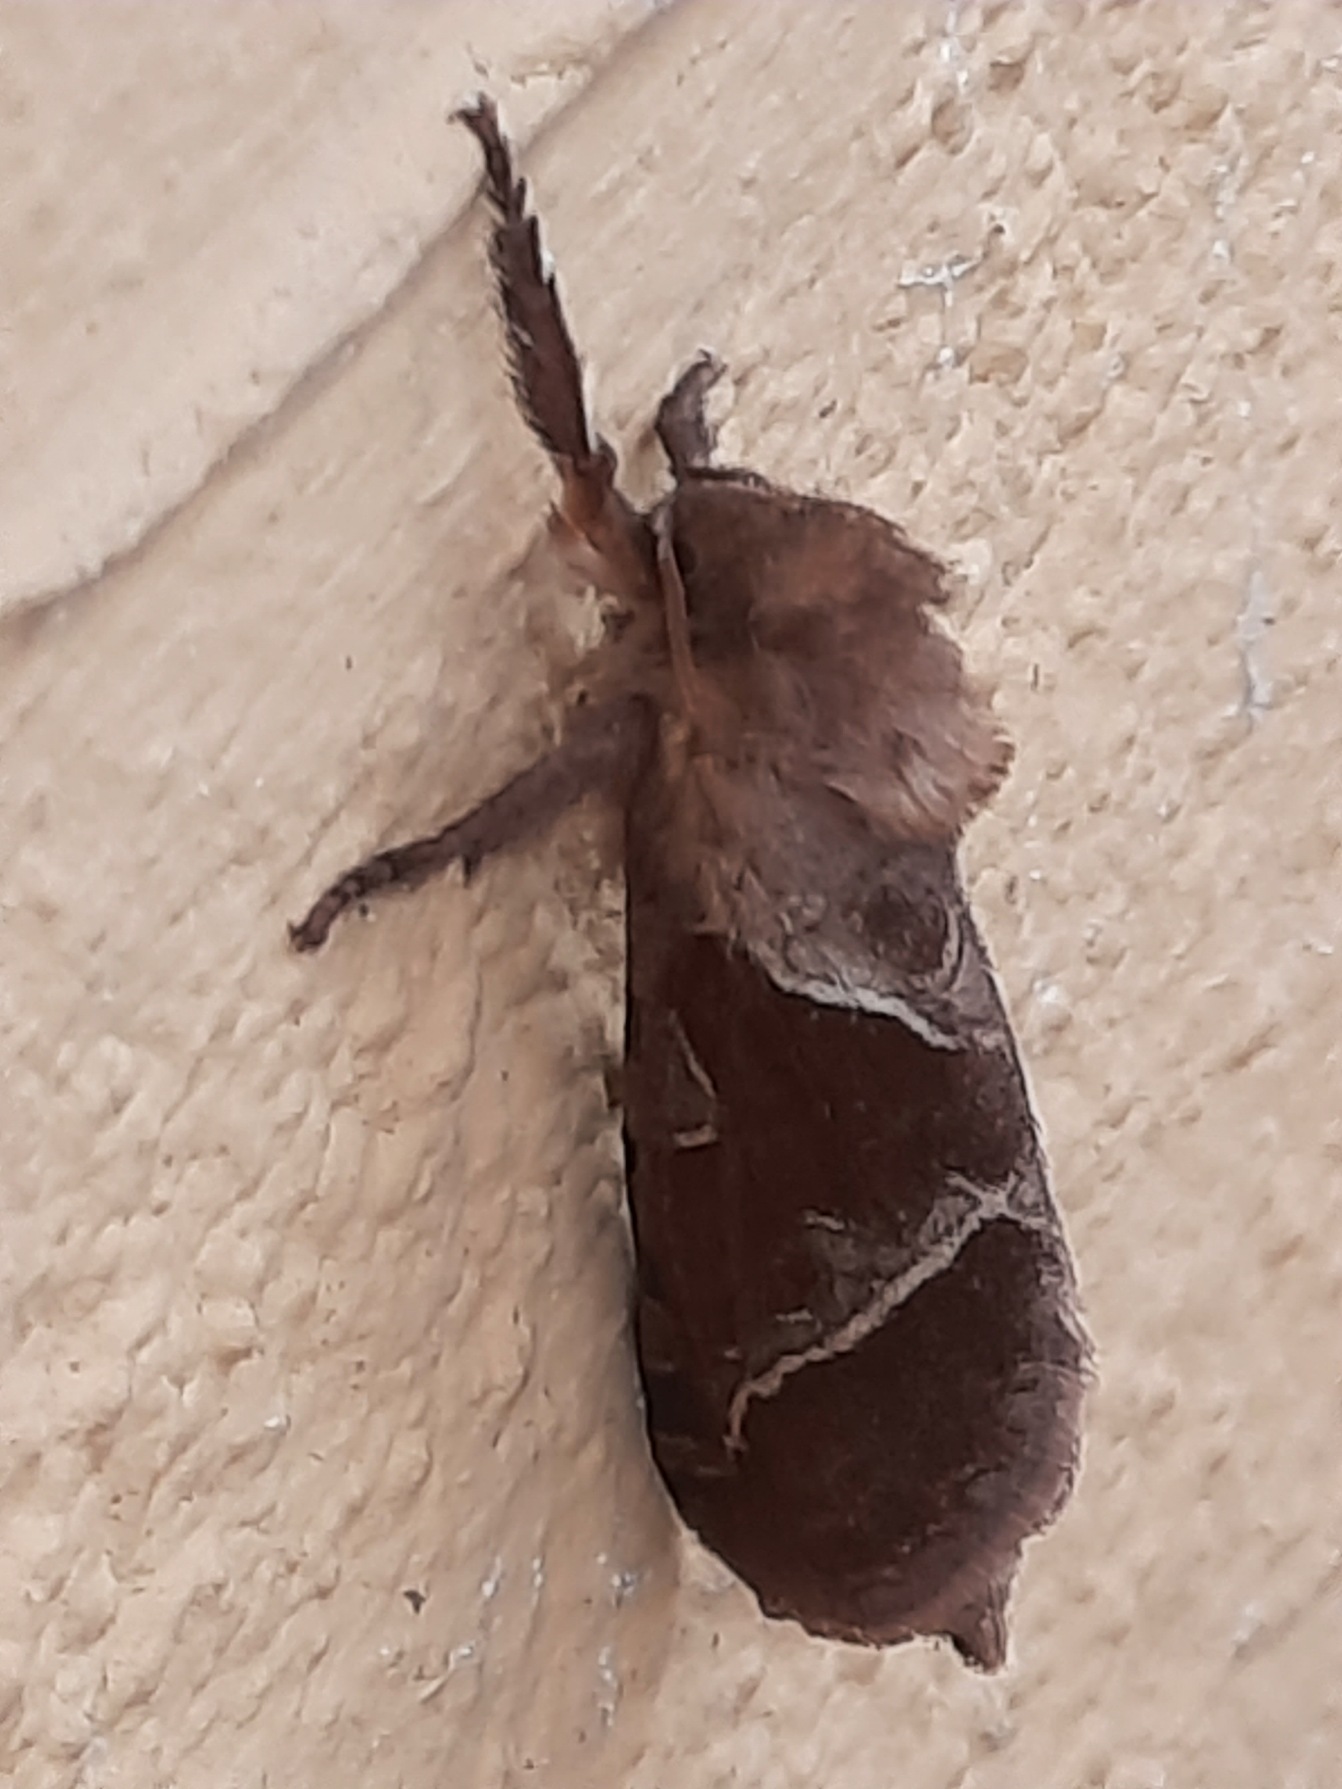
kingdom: Animalia
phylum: Arthropoda
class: Insecta
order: Lepidoptera
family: Hepialidae
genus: Triodia
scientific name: Triodia sylvina
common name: Skræpperodæder
